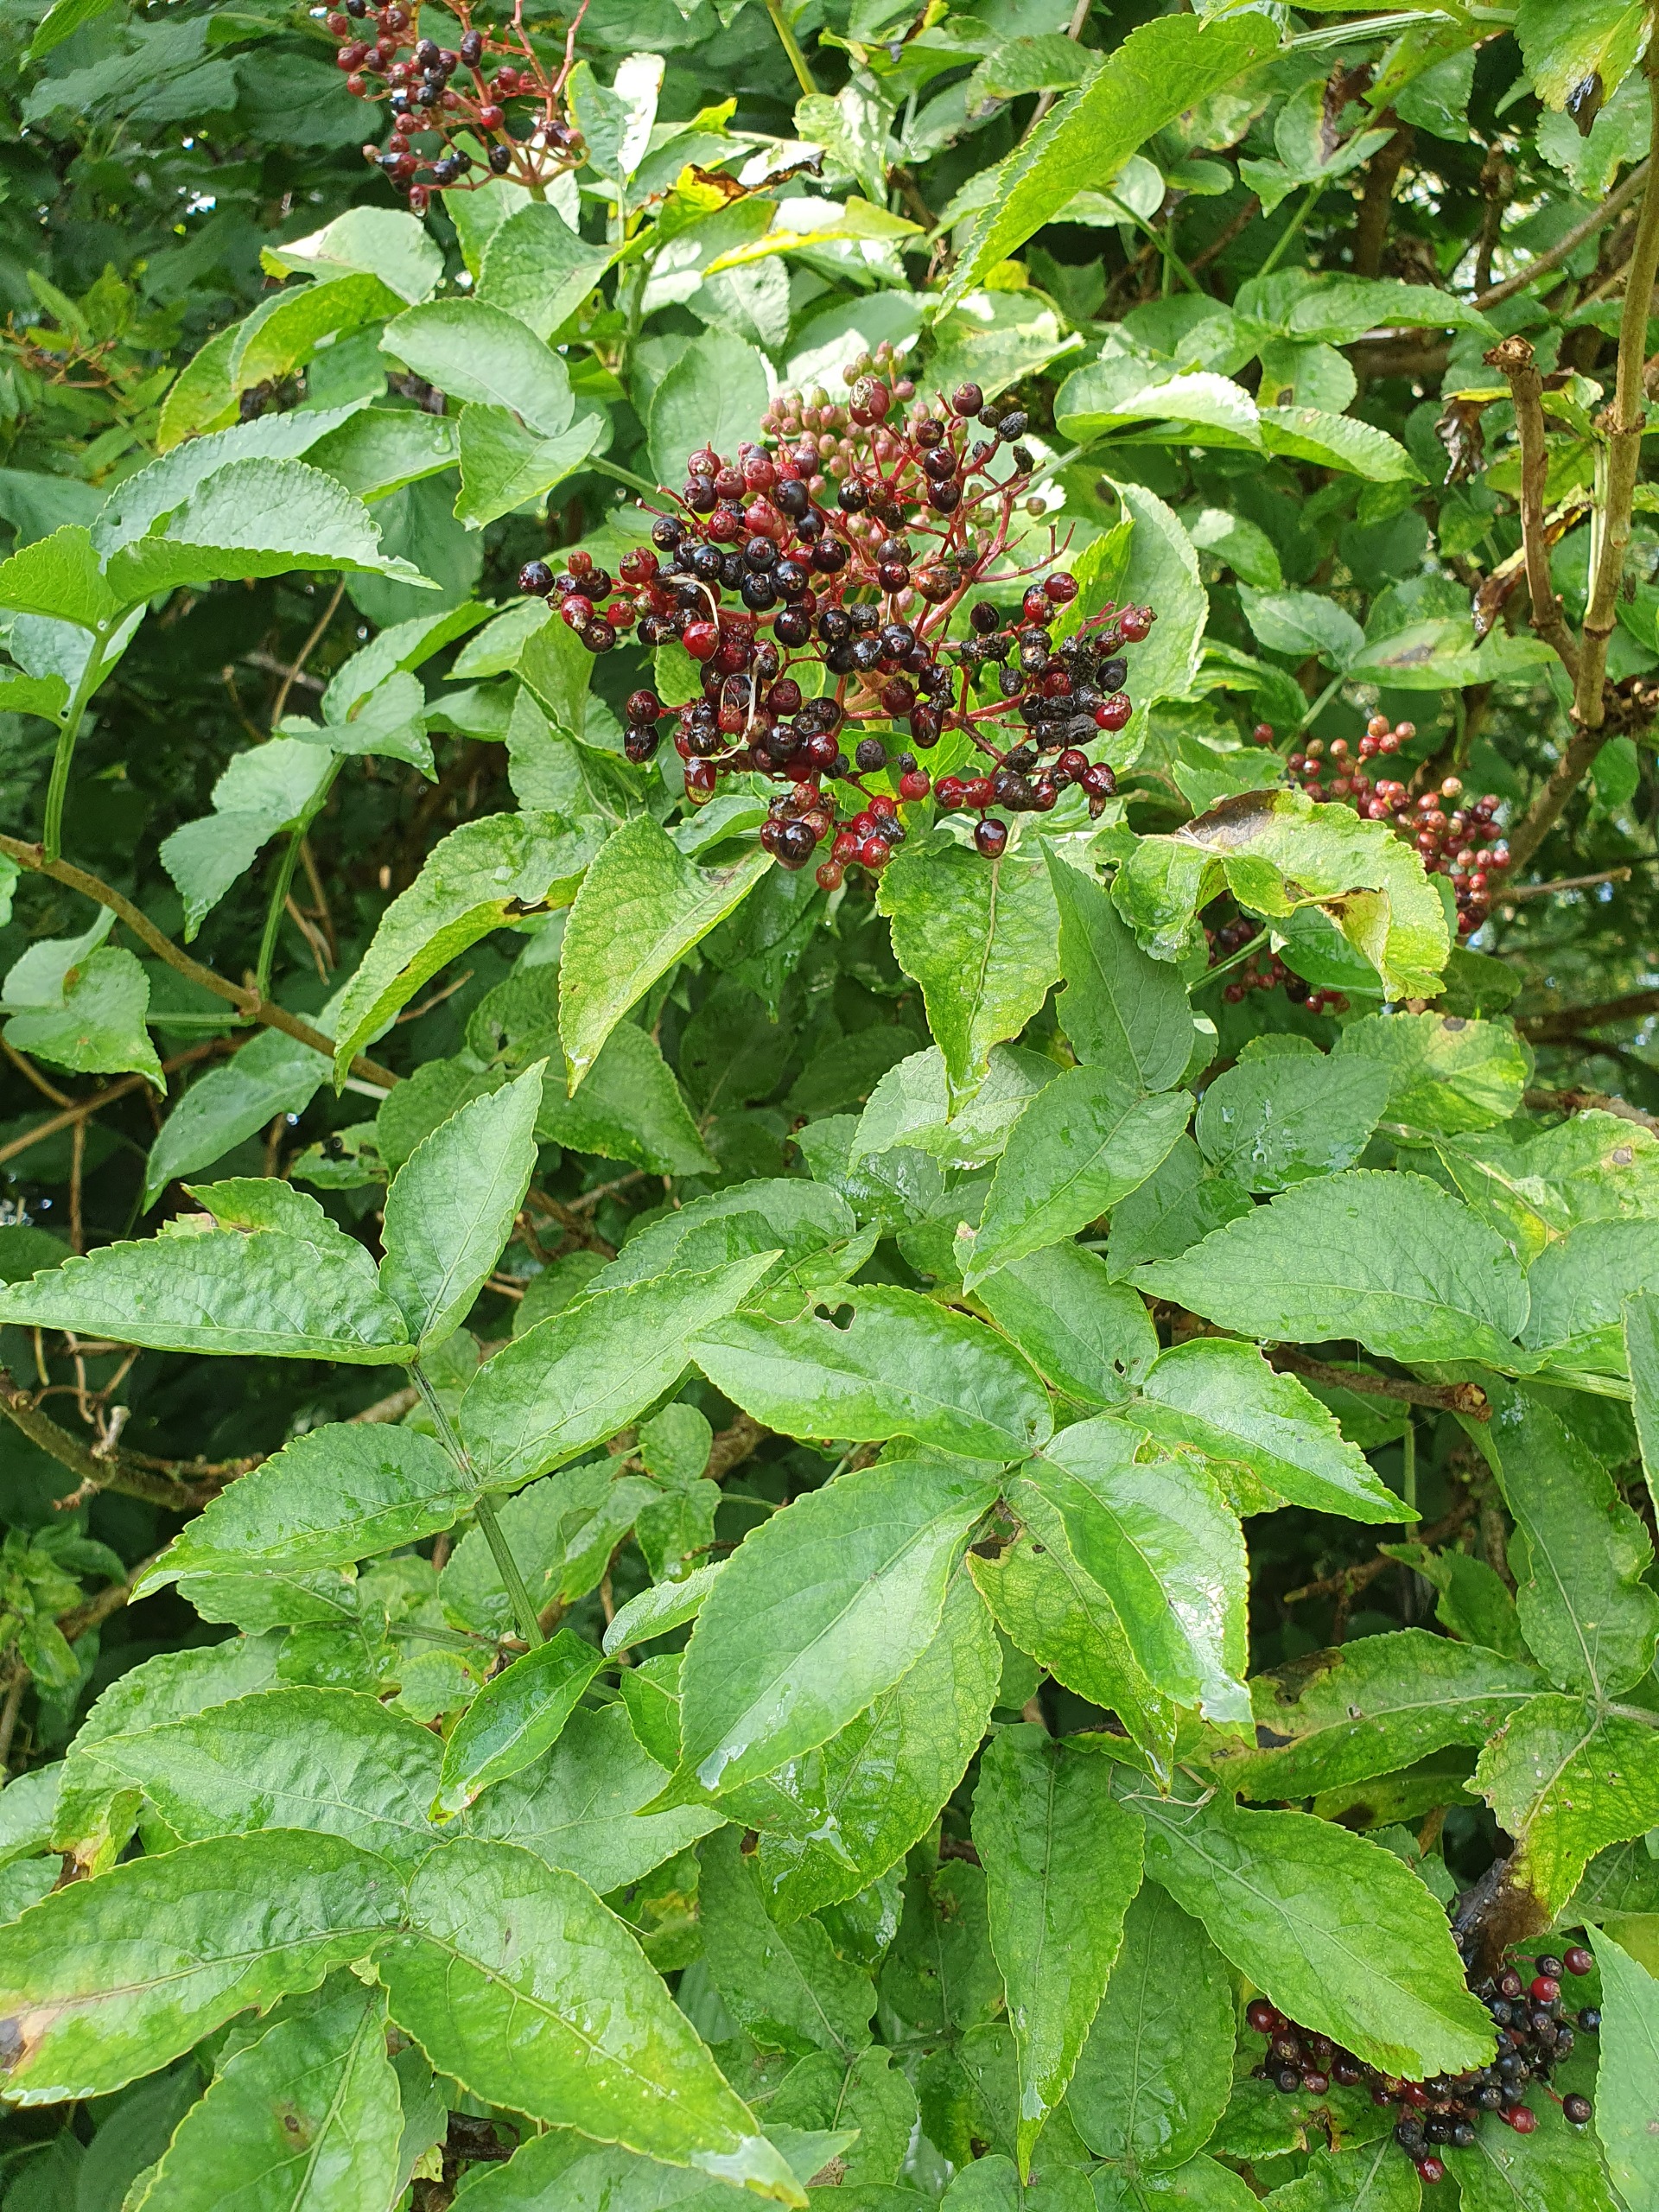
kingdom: Plantae
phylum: Tracheophyta
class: Magnoliopsida
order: Dipsacales
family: Viburnaceae
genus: Sambucus
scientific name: Sambucus nigra
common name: Almindelig hyld
